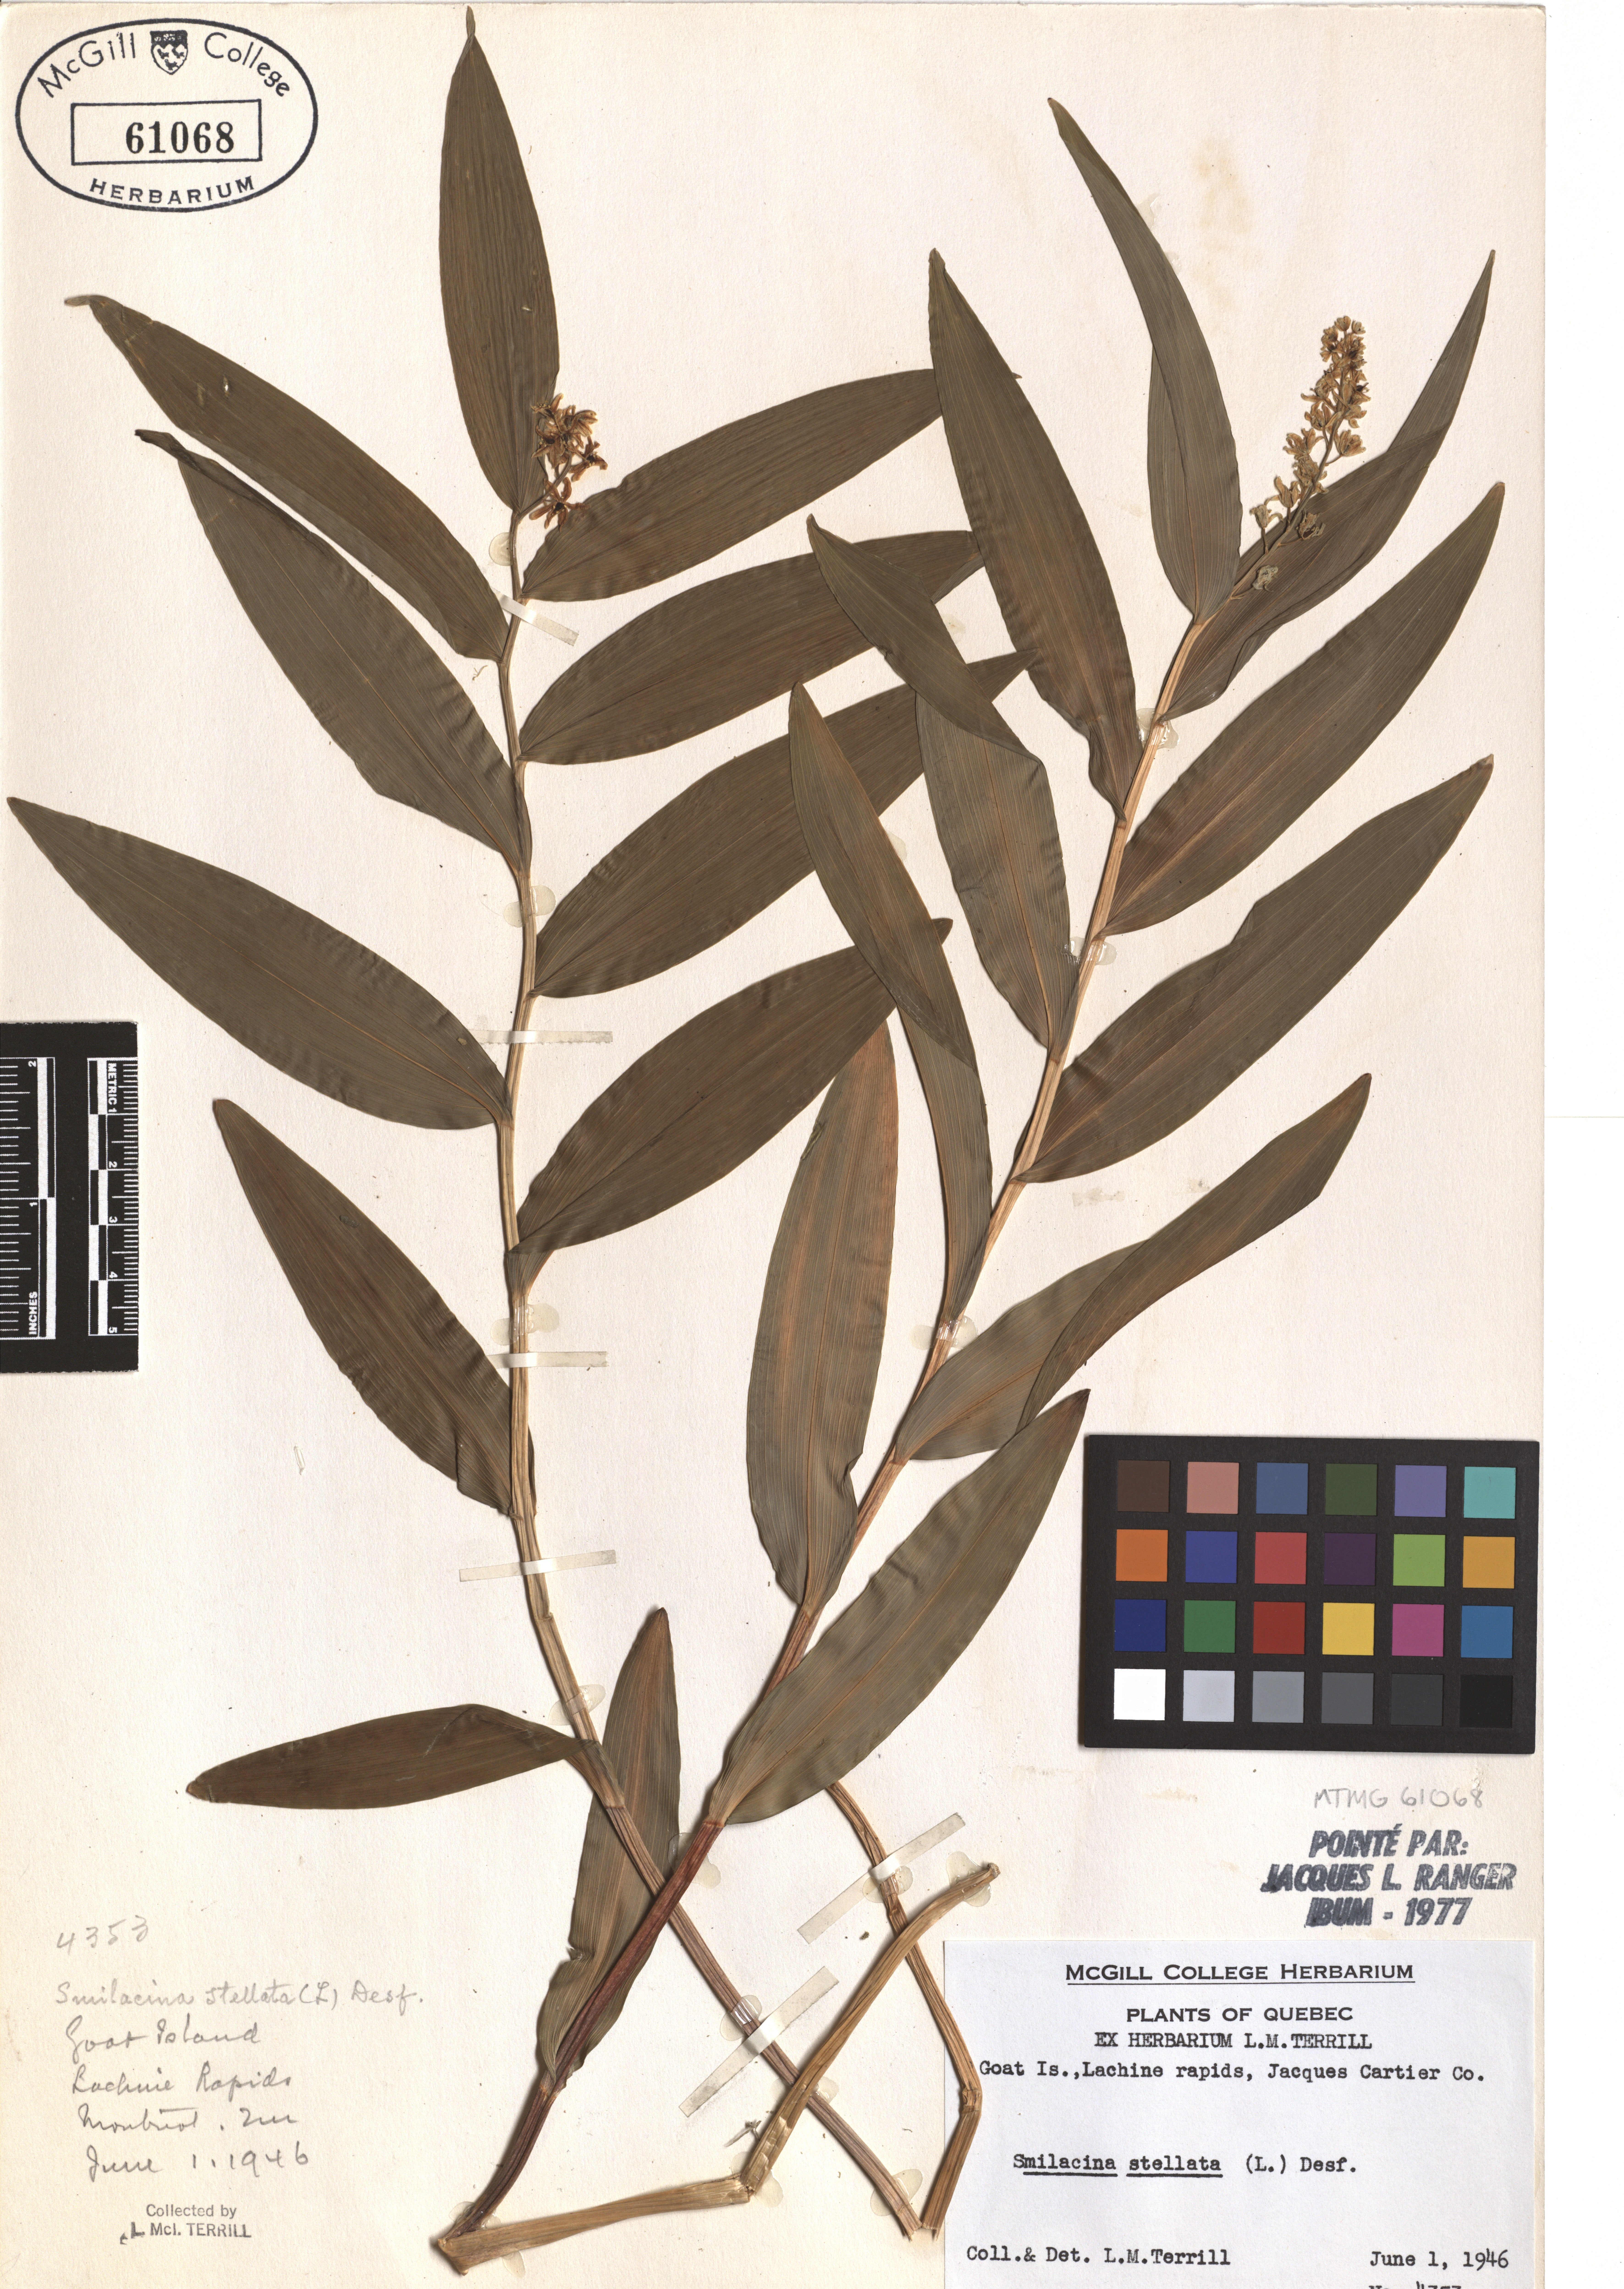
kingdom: Plantae
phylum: Tracheophyta
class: Liliopsida
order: Asparagales
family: Asparagaceae
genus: Maianthemum
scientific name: Maianthemum stellatum
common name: Little false solomon's seal
